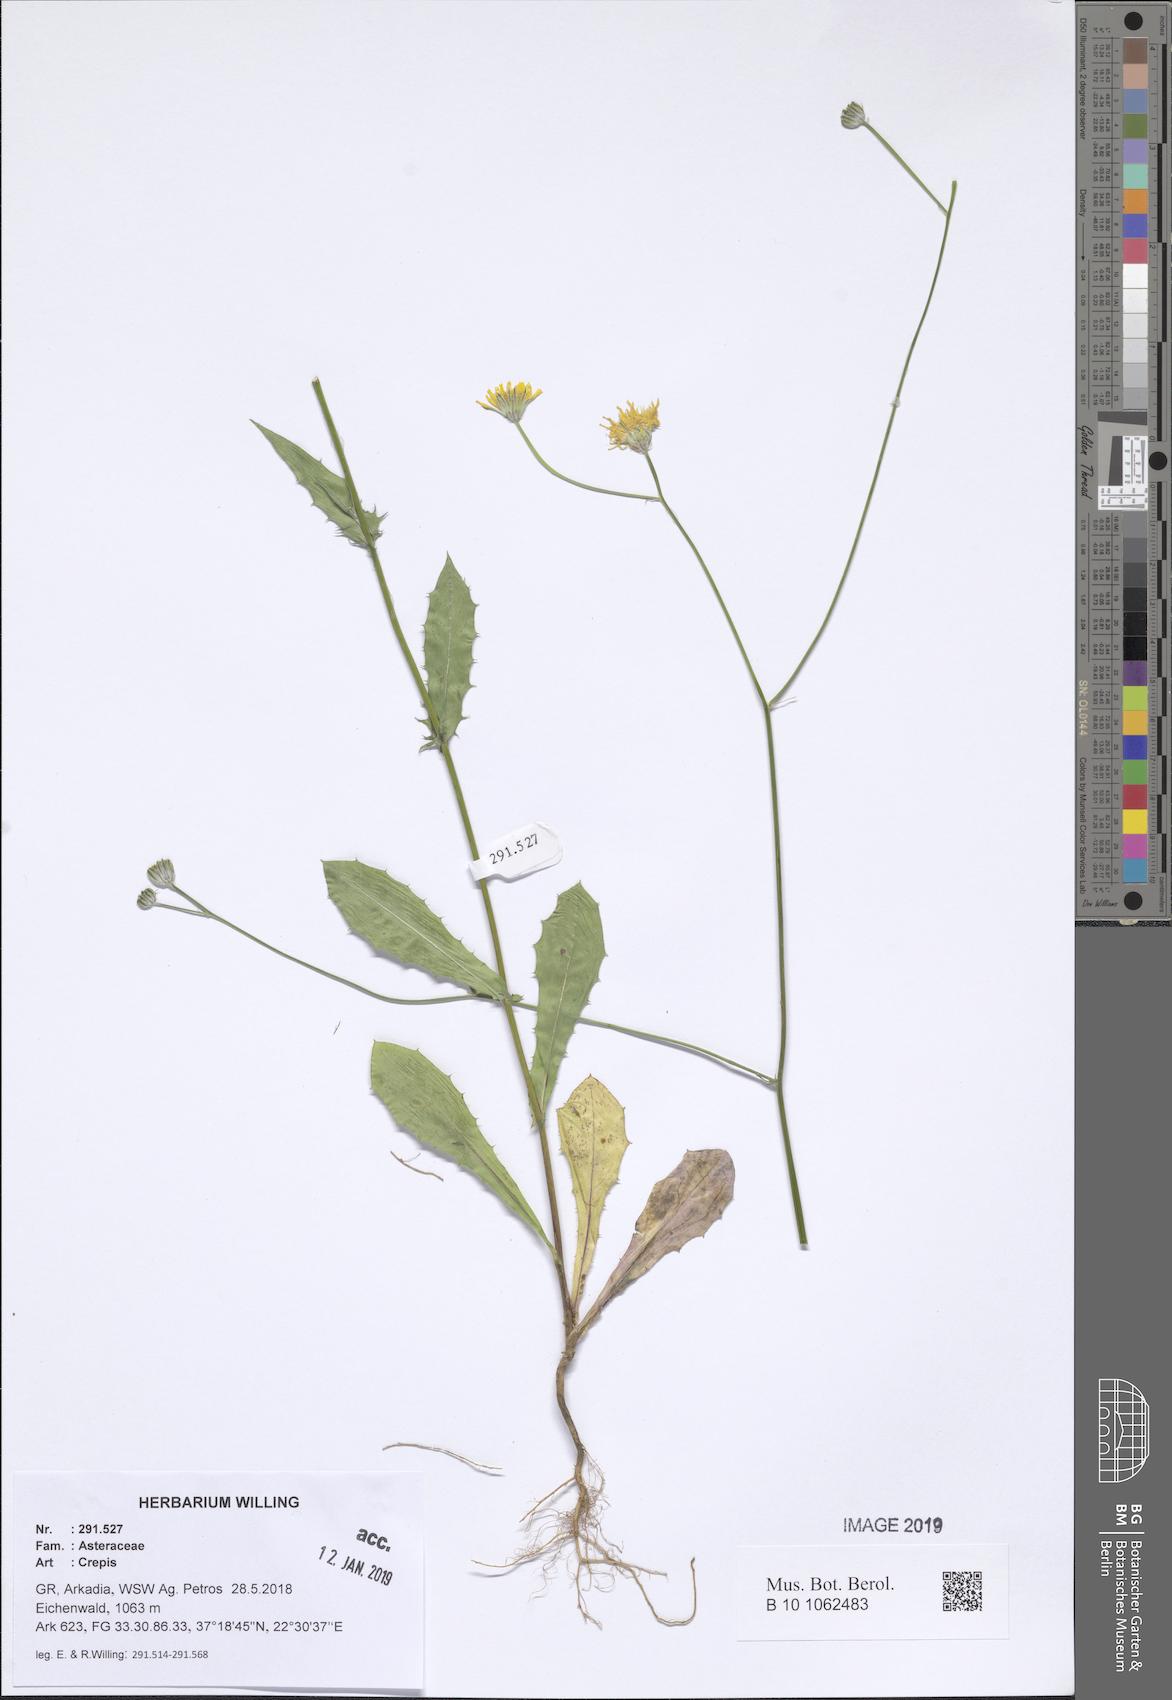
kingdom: Plantae
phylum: Tracheophyta
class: Magnoliopsida
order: Asterales
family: Asteraceae
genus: Crepis
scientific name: Crepis
